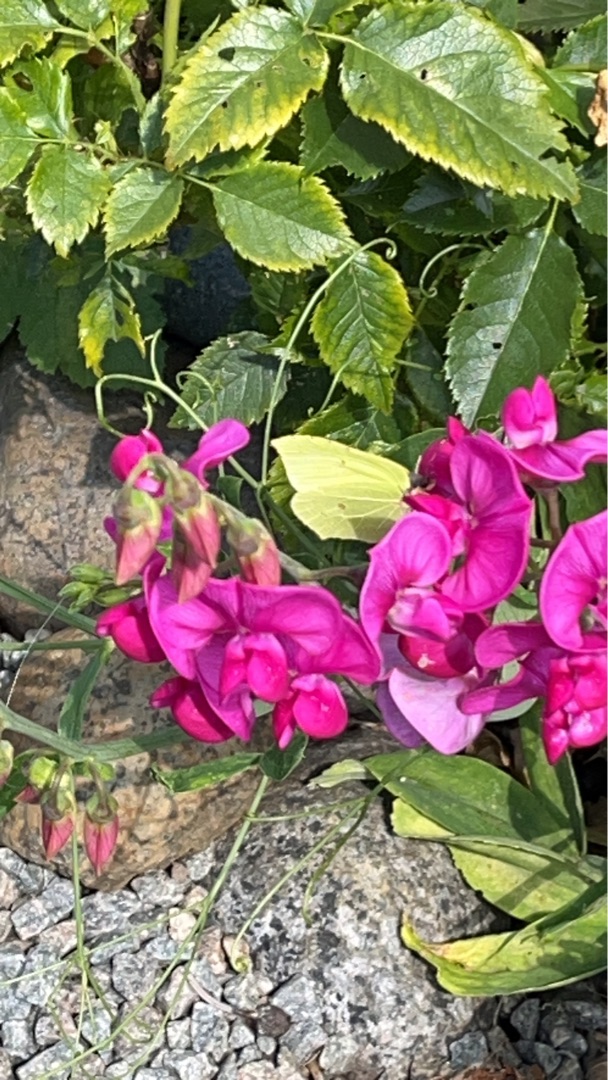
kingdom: Animalia
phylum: Arthropoda
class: Insecta
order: Lepidoptera
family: Pieridae
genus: Gonepteryx
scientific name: Gonepteryx rhamni
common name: Citronsommerfugl
